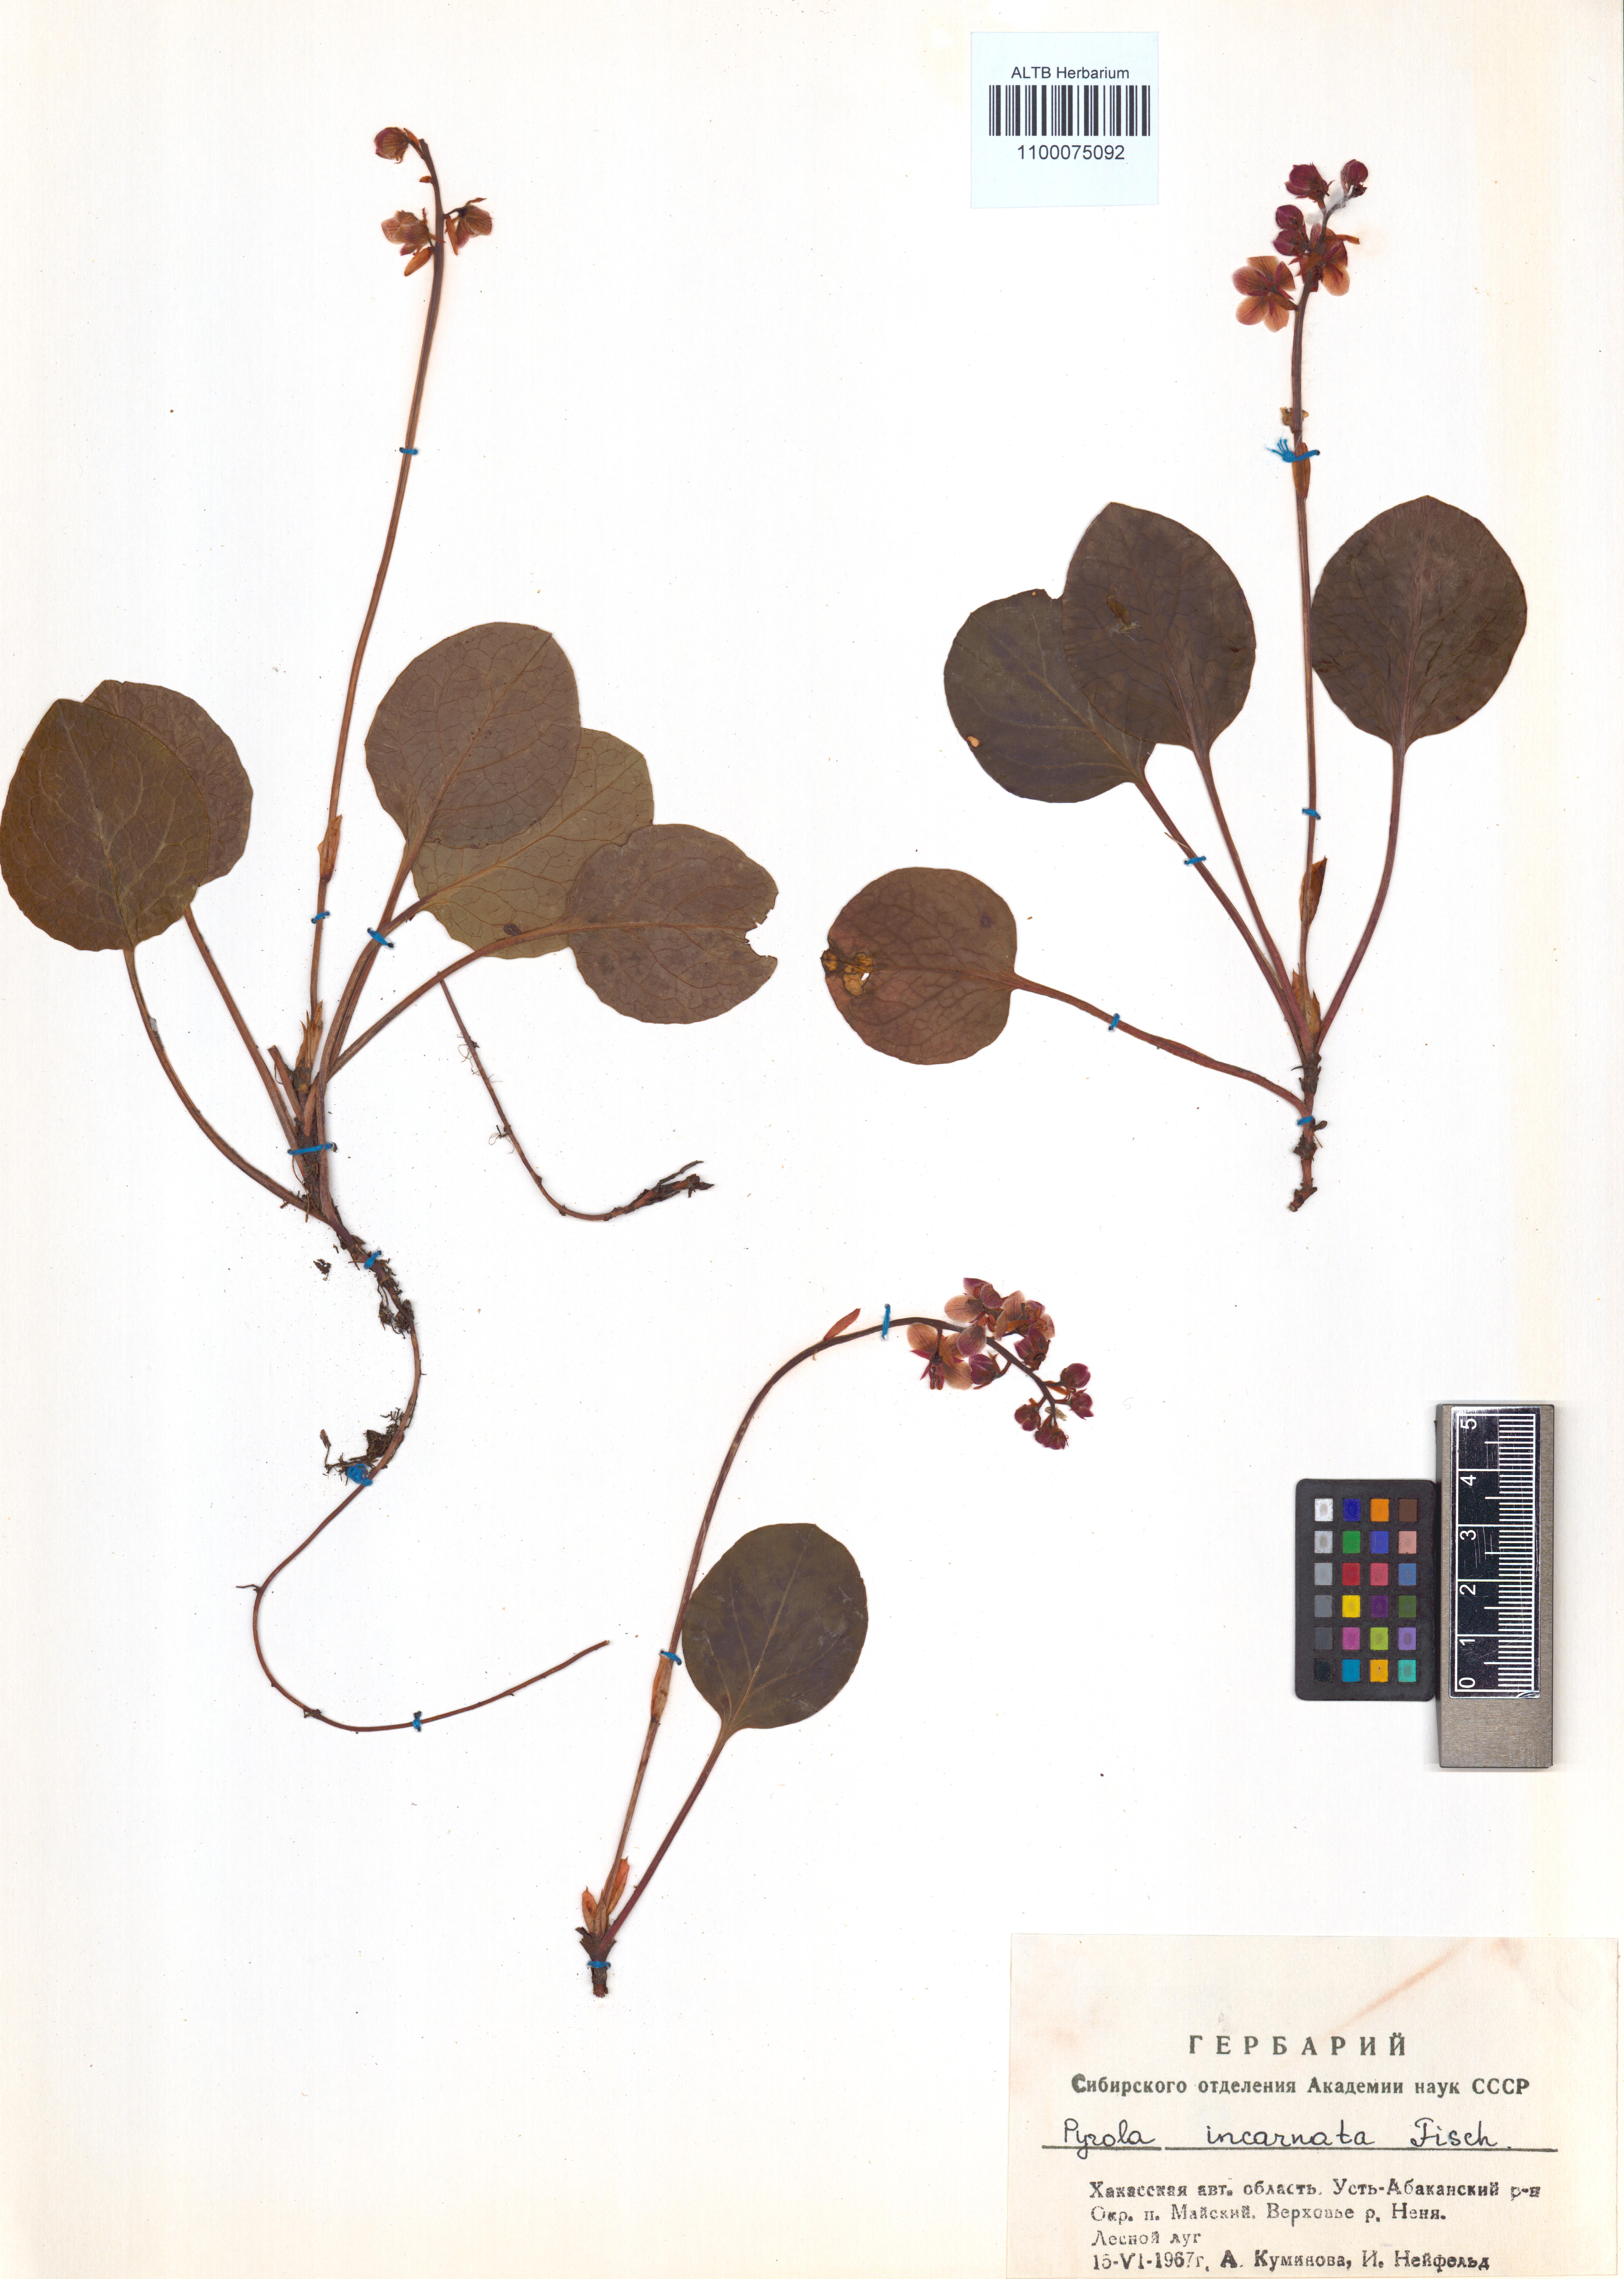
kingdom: Plantae
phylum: Tracheophyta
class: Magnoliopsida
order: Ericales
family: Ericaceae
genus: Pyrola
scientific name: Pyrola asarifolia
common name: Bog wintergreen
